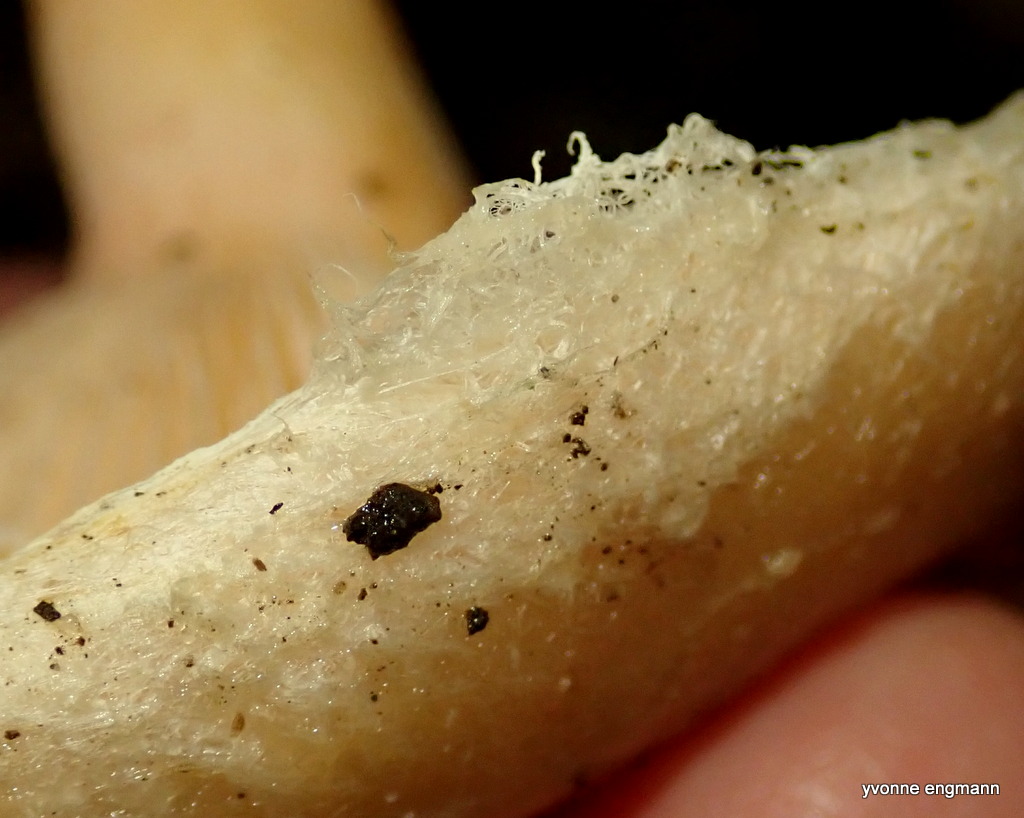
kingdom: Fungi
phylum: Basidiomycota
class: Agaricomycetes
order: Russulales
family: Russulaceae
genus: Lactarius
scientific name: Lactarius pubescens
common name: dunet mælkehat
